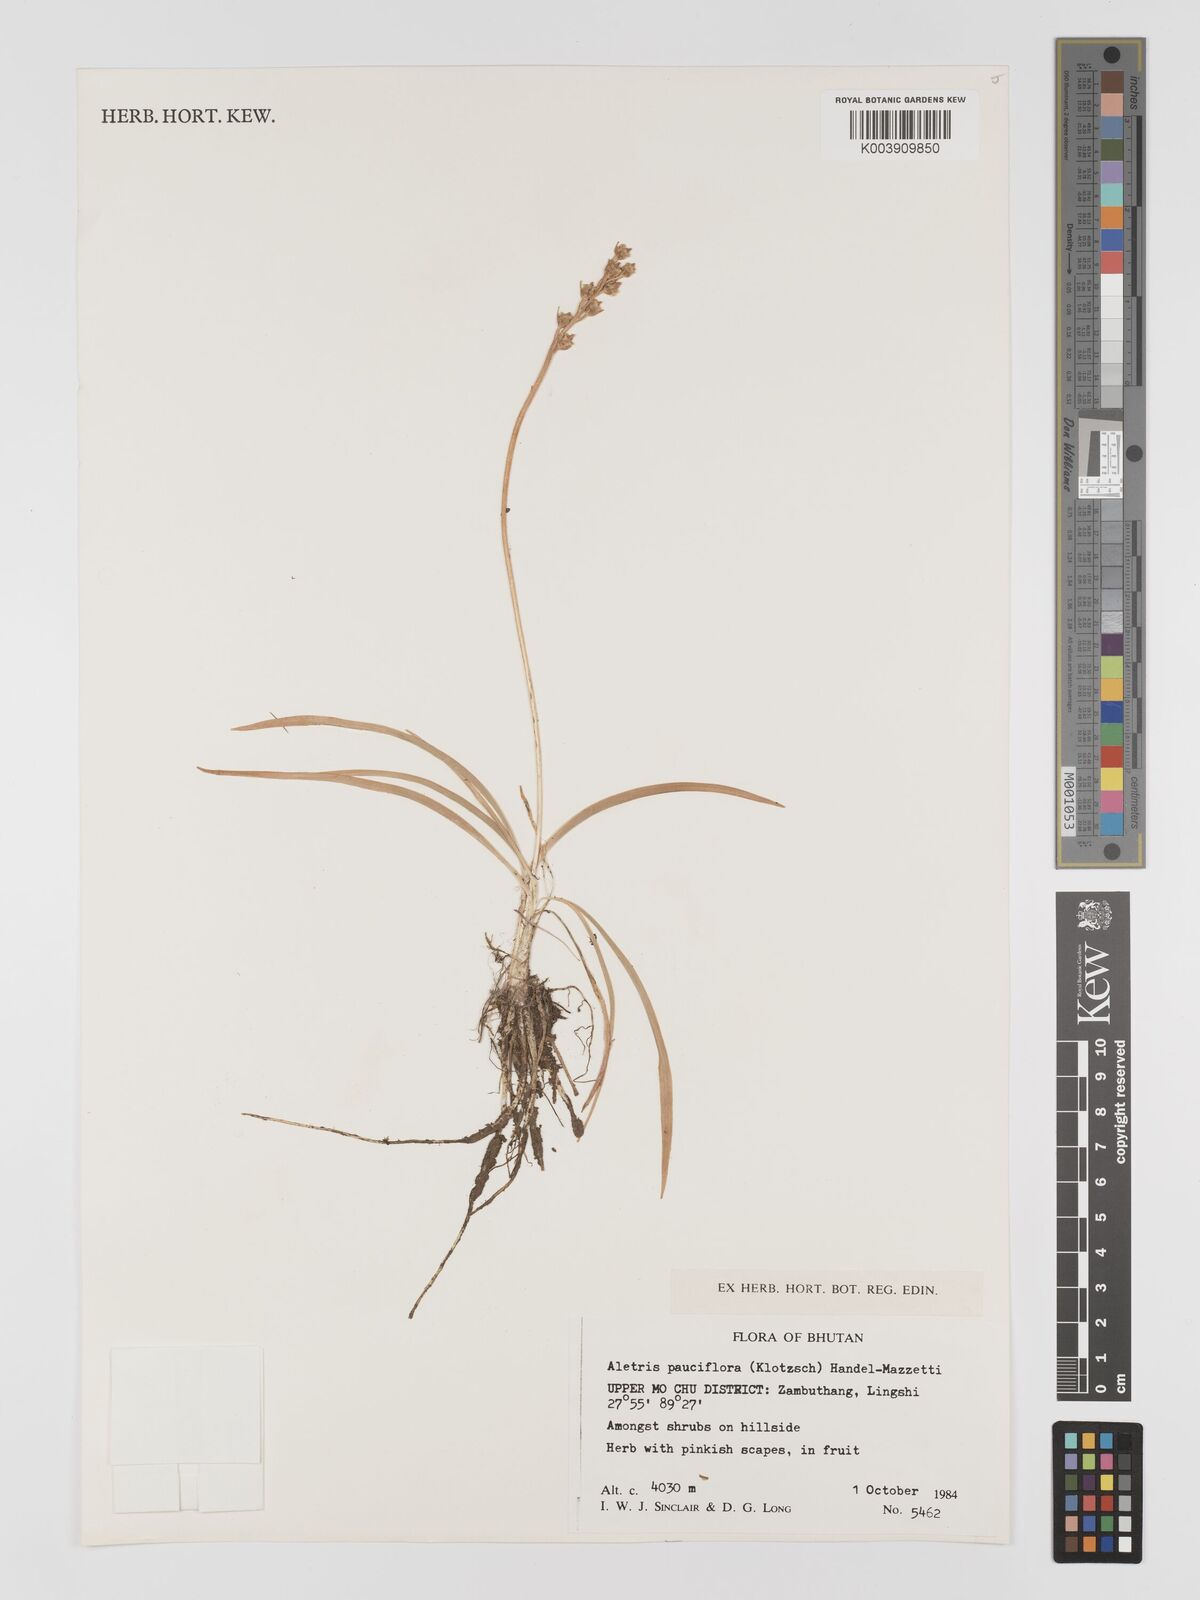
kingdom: Plantae
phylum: Tracheophyta
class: Liliopsida
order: Dioscoreales
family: Nartheciaceae
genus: Aletris
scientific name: Aletris pauciflora
